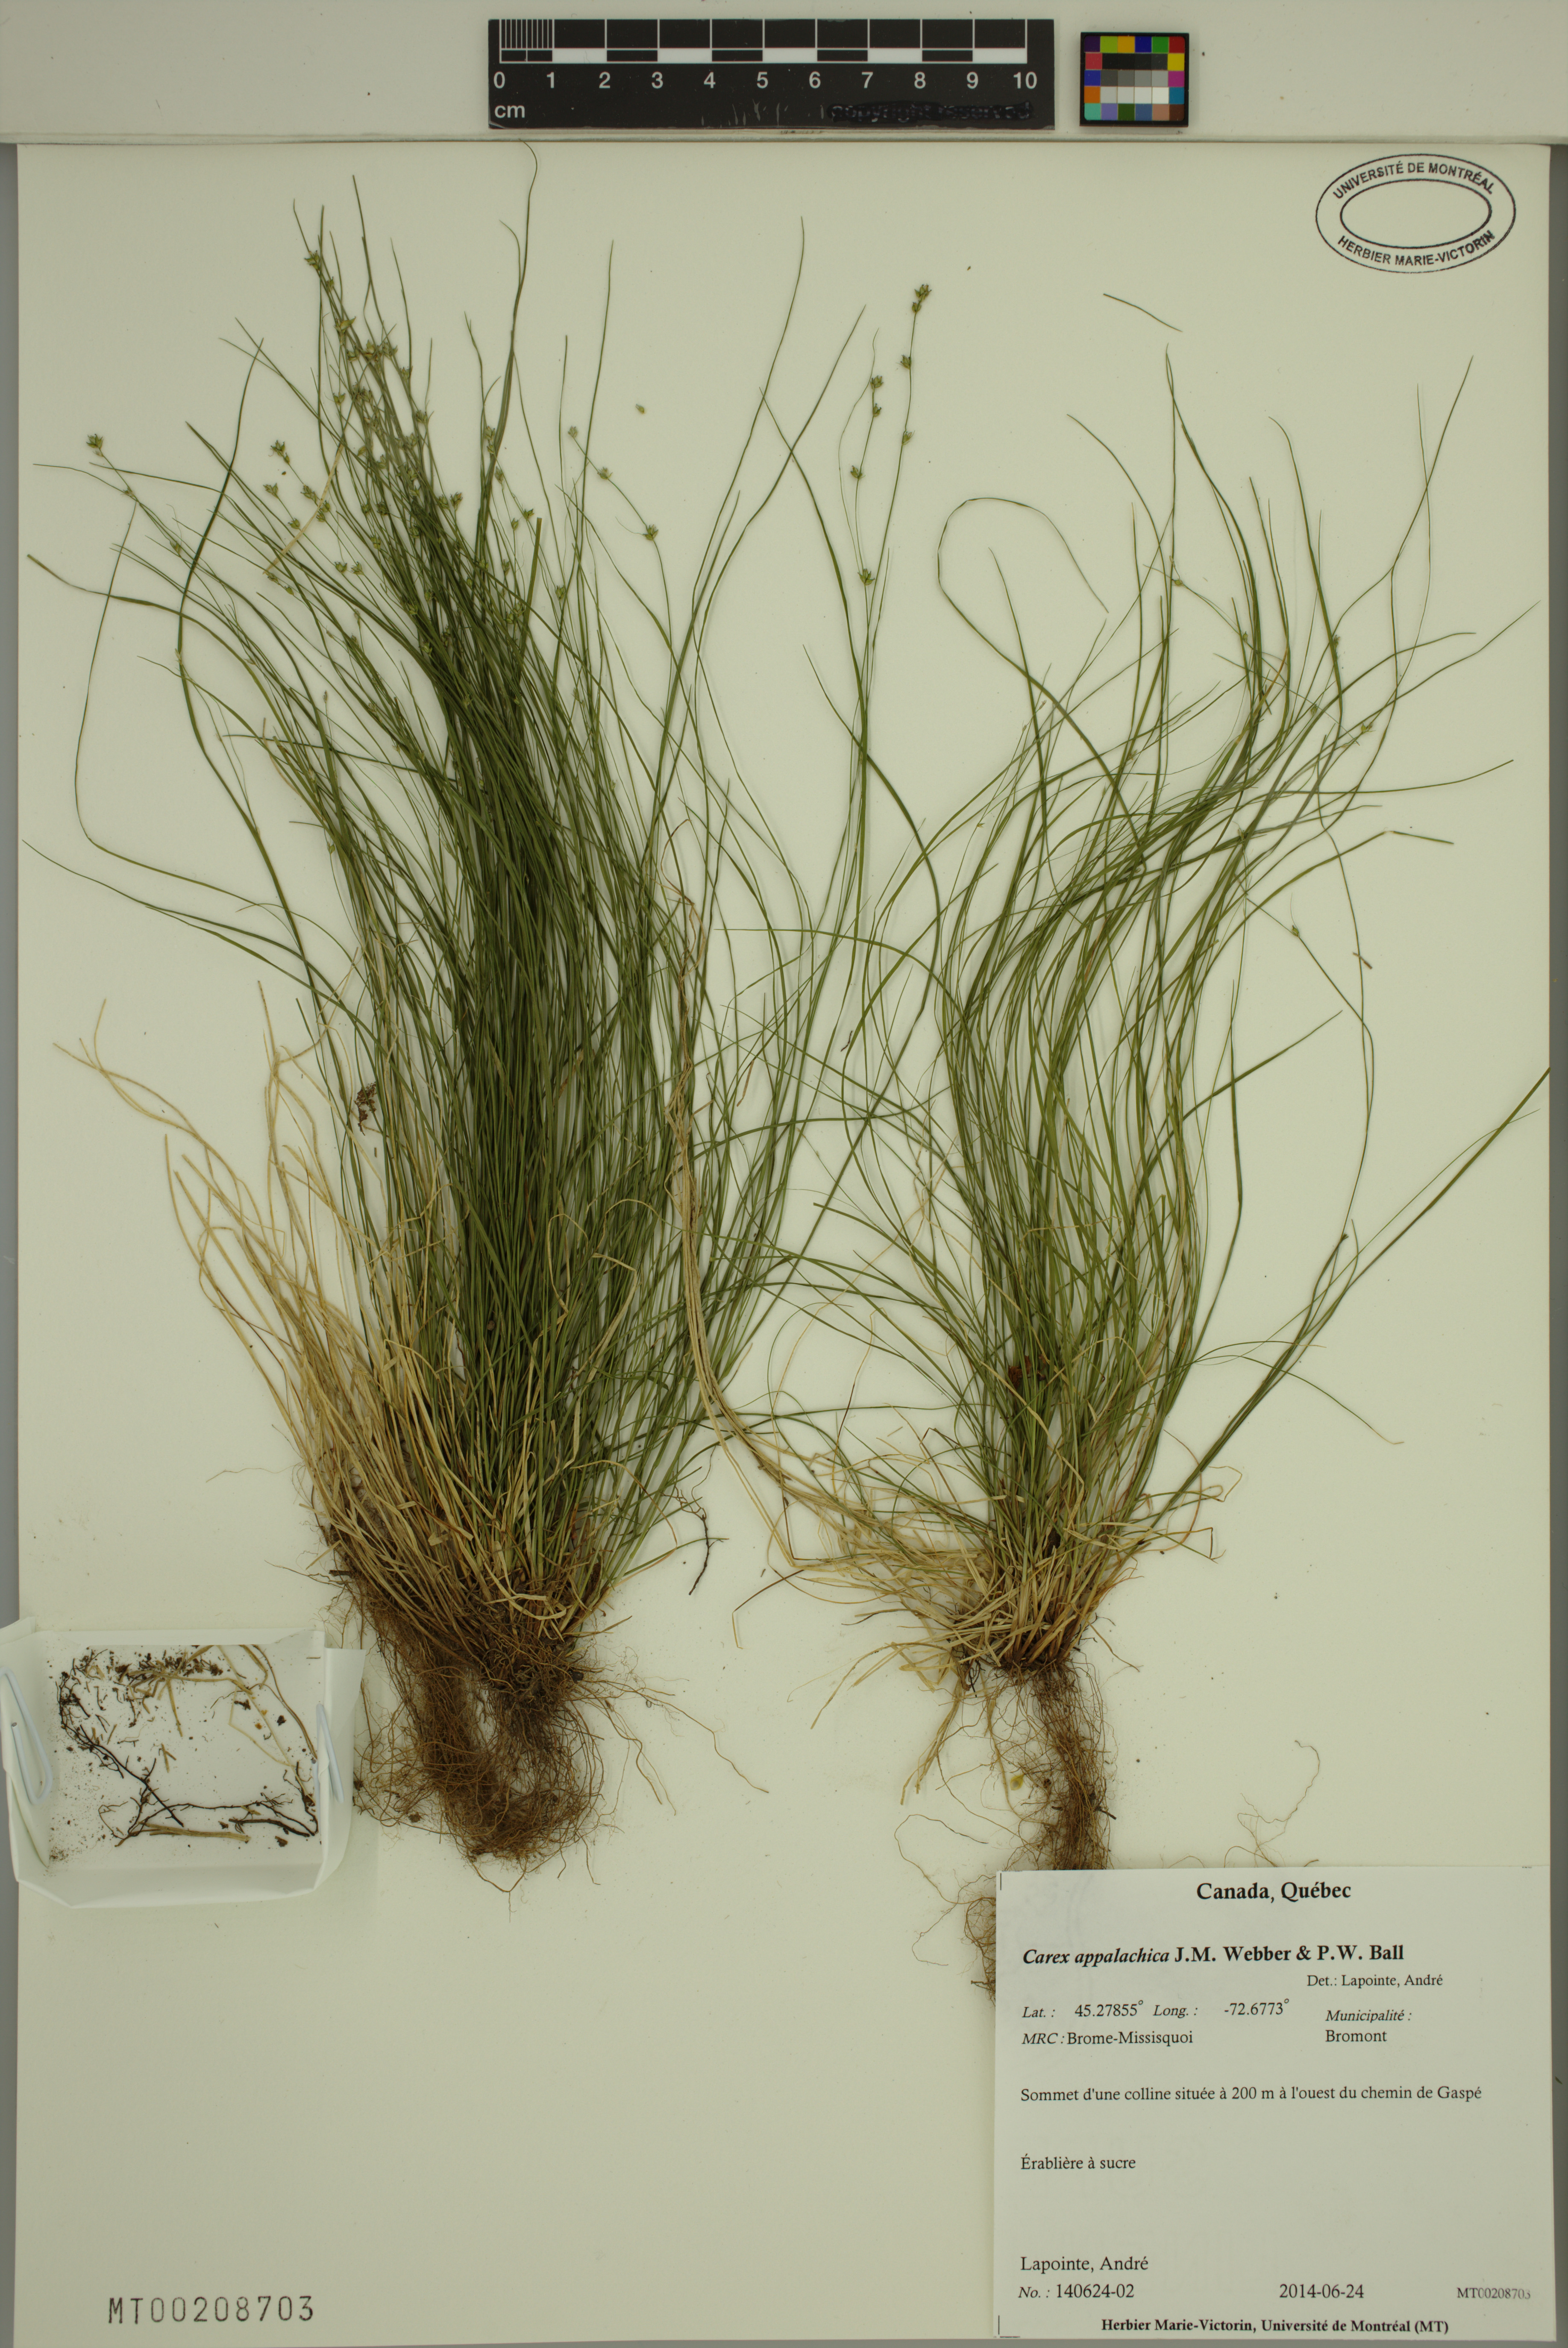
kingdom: Plantae
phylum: Tracheophyta
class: Liliopsida
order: Poales
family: Cyperaceae
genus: Carex
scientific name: Carex appalachica
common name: Appalachian sedge
